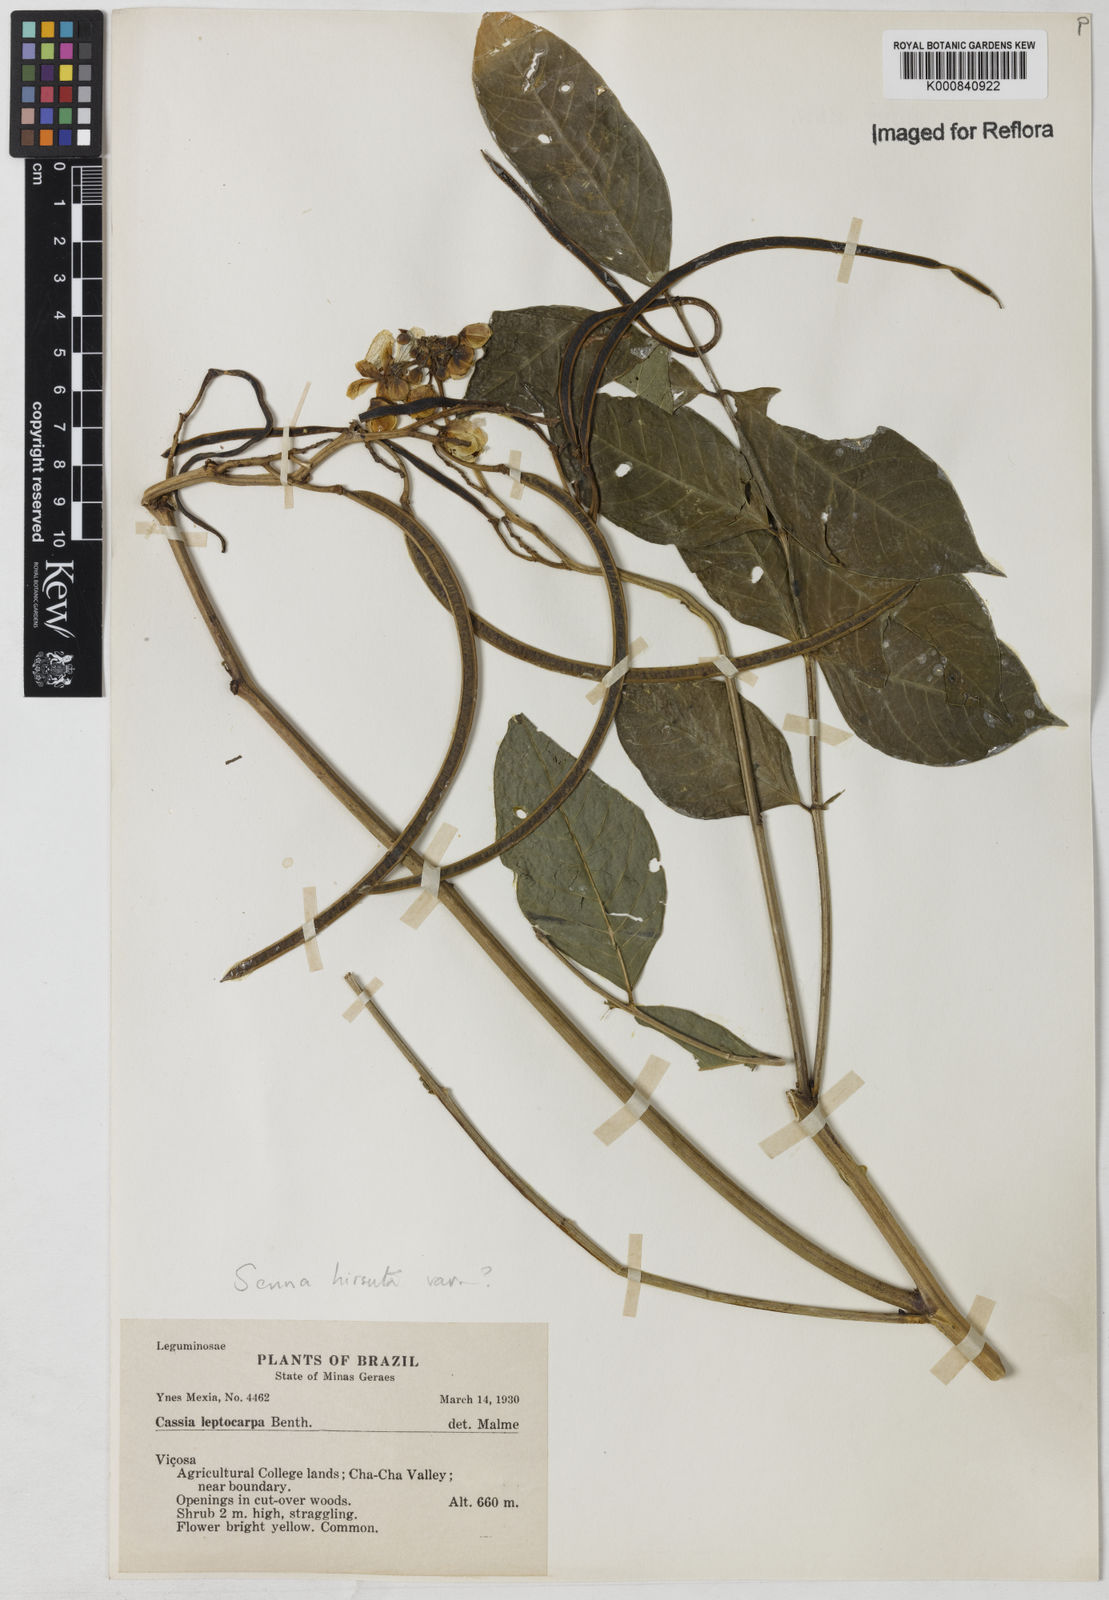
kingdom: Plantae
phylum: Tracheophyta
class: Magnoliopsida
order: Fabales
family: Fabaceae
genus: Senna
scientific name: Senna hirsuta
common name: Woolly senna
